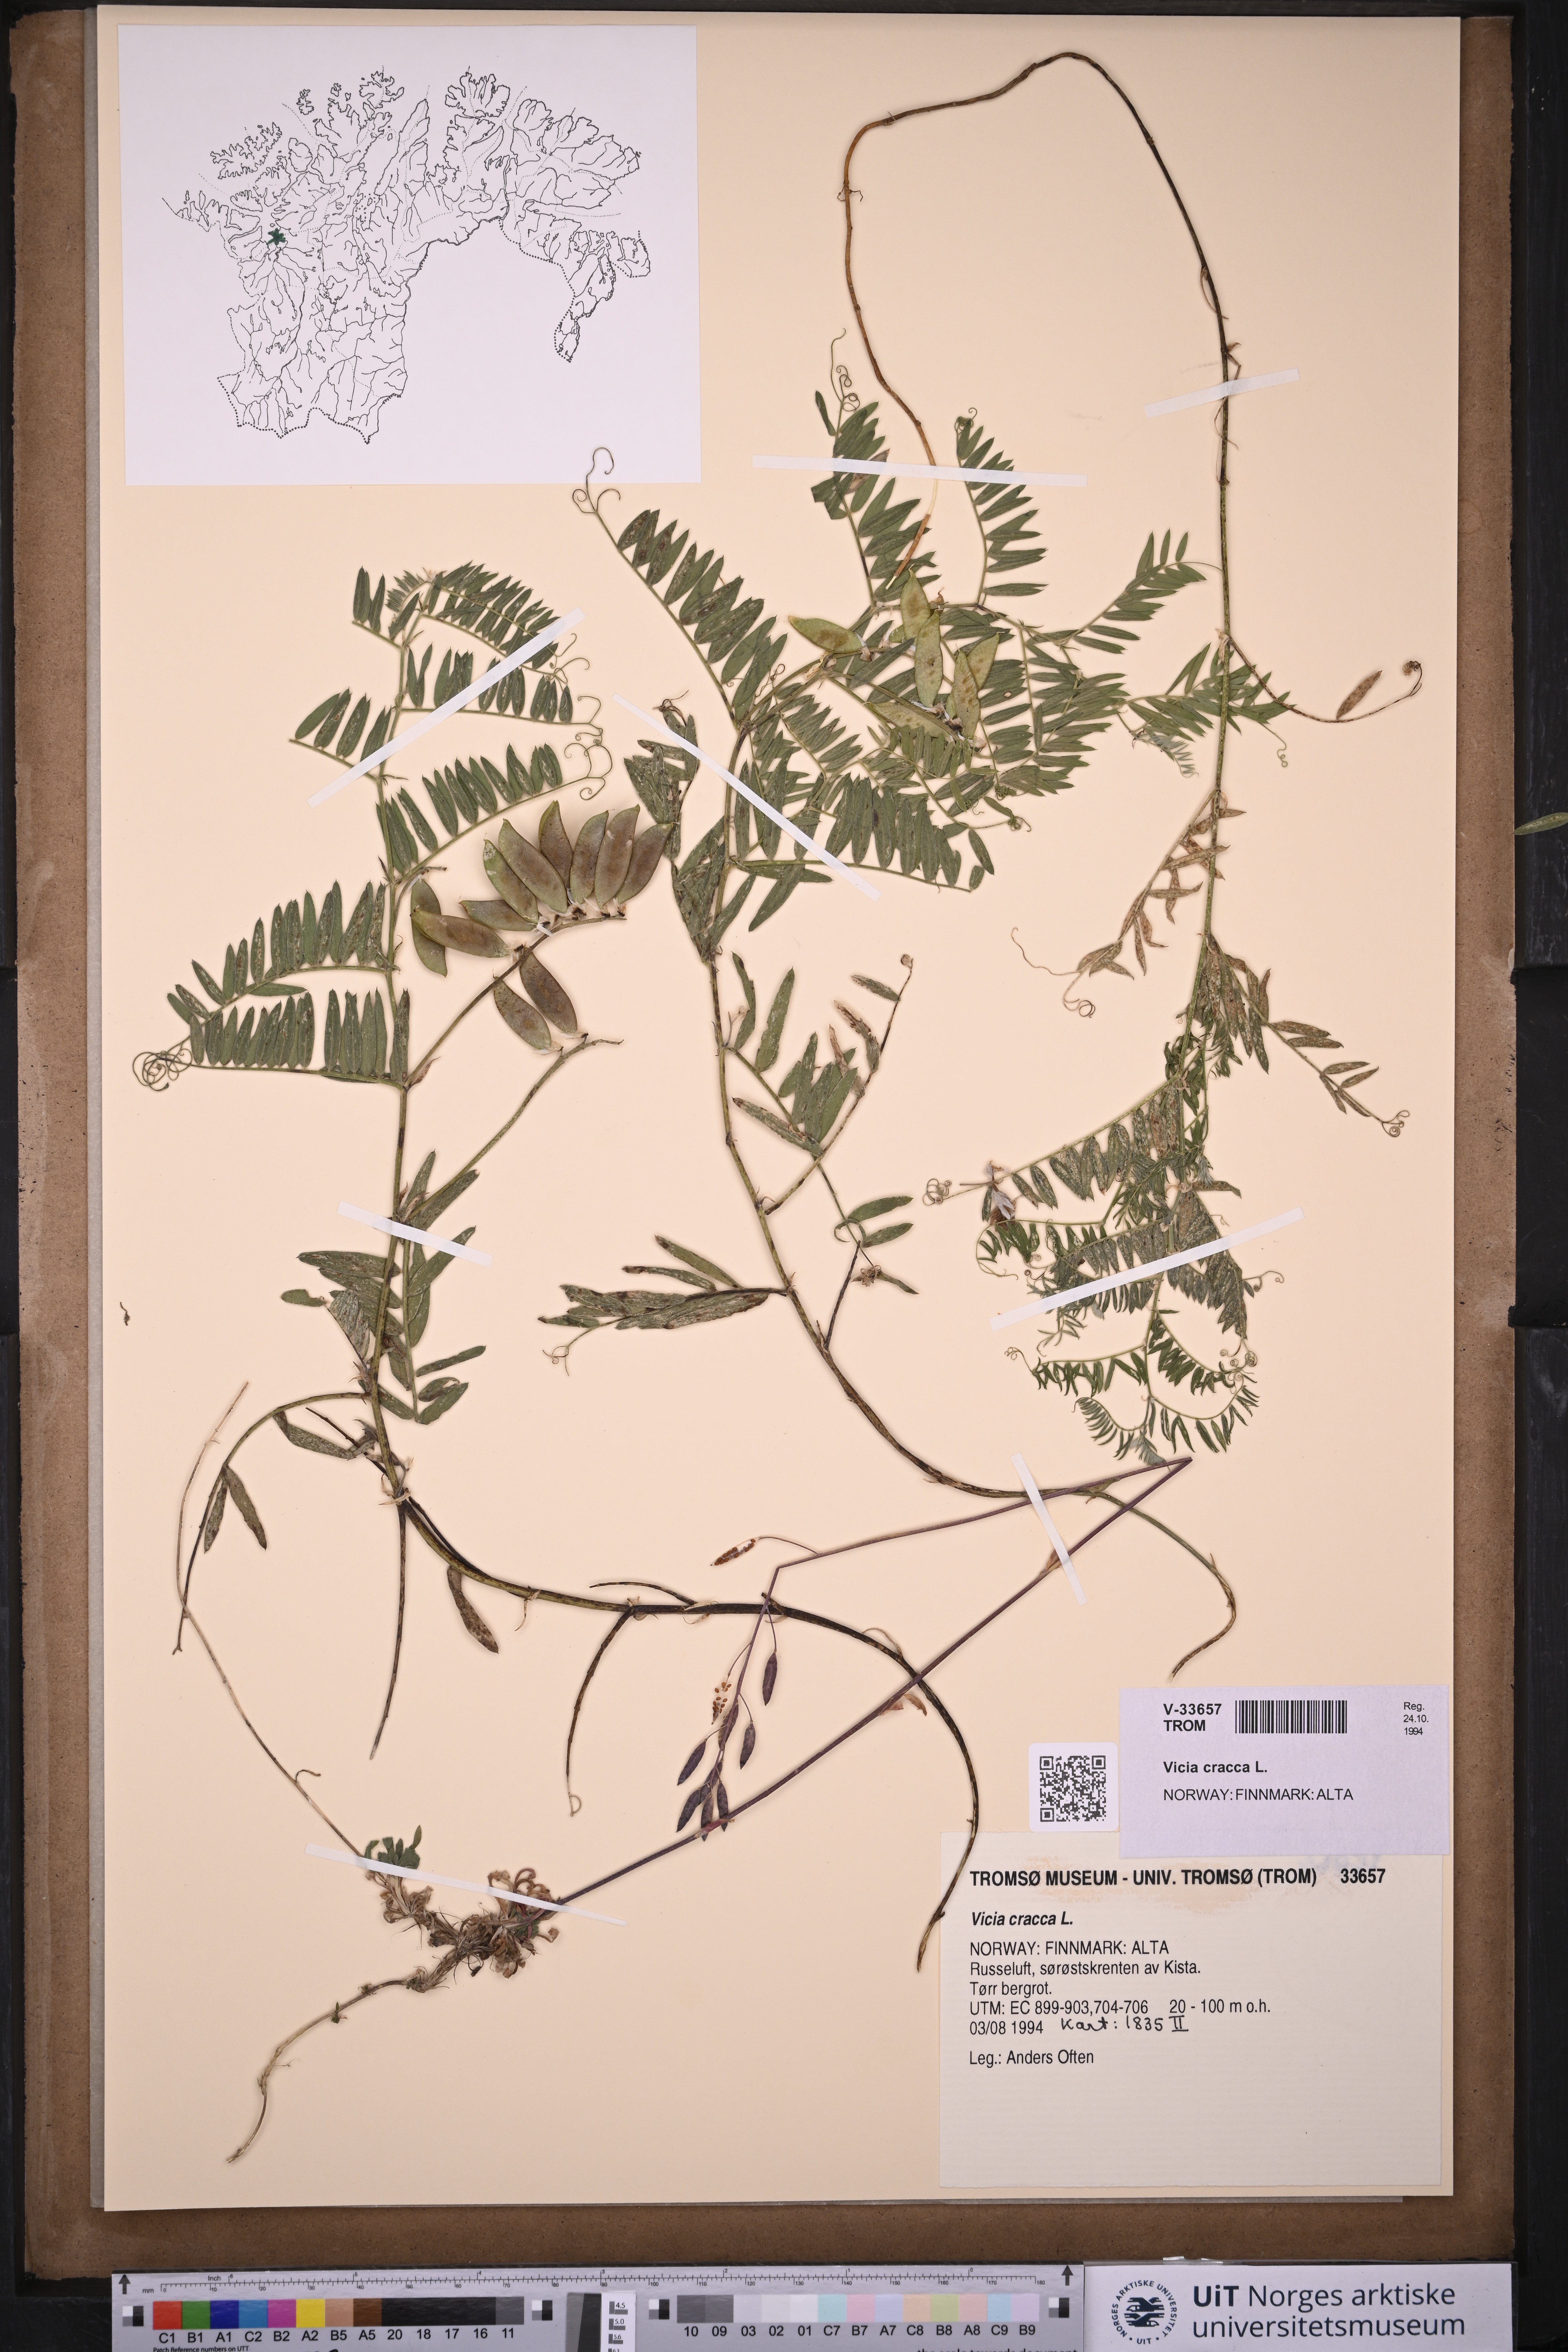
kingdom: Plantae
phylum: Tracheophyta
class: Magnoliopsida
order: Fabales
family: Fabaceae
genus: Vicia
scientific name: Vicia cracca
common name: Bird vetch
